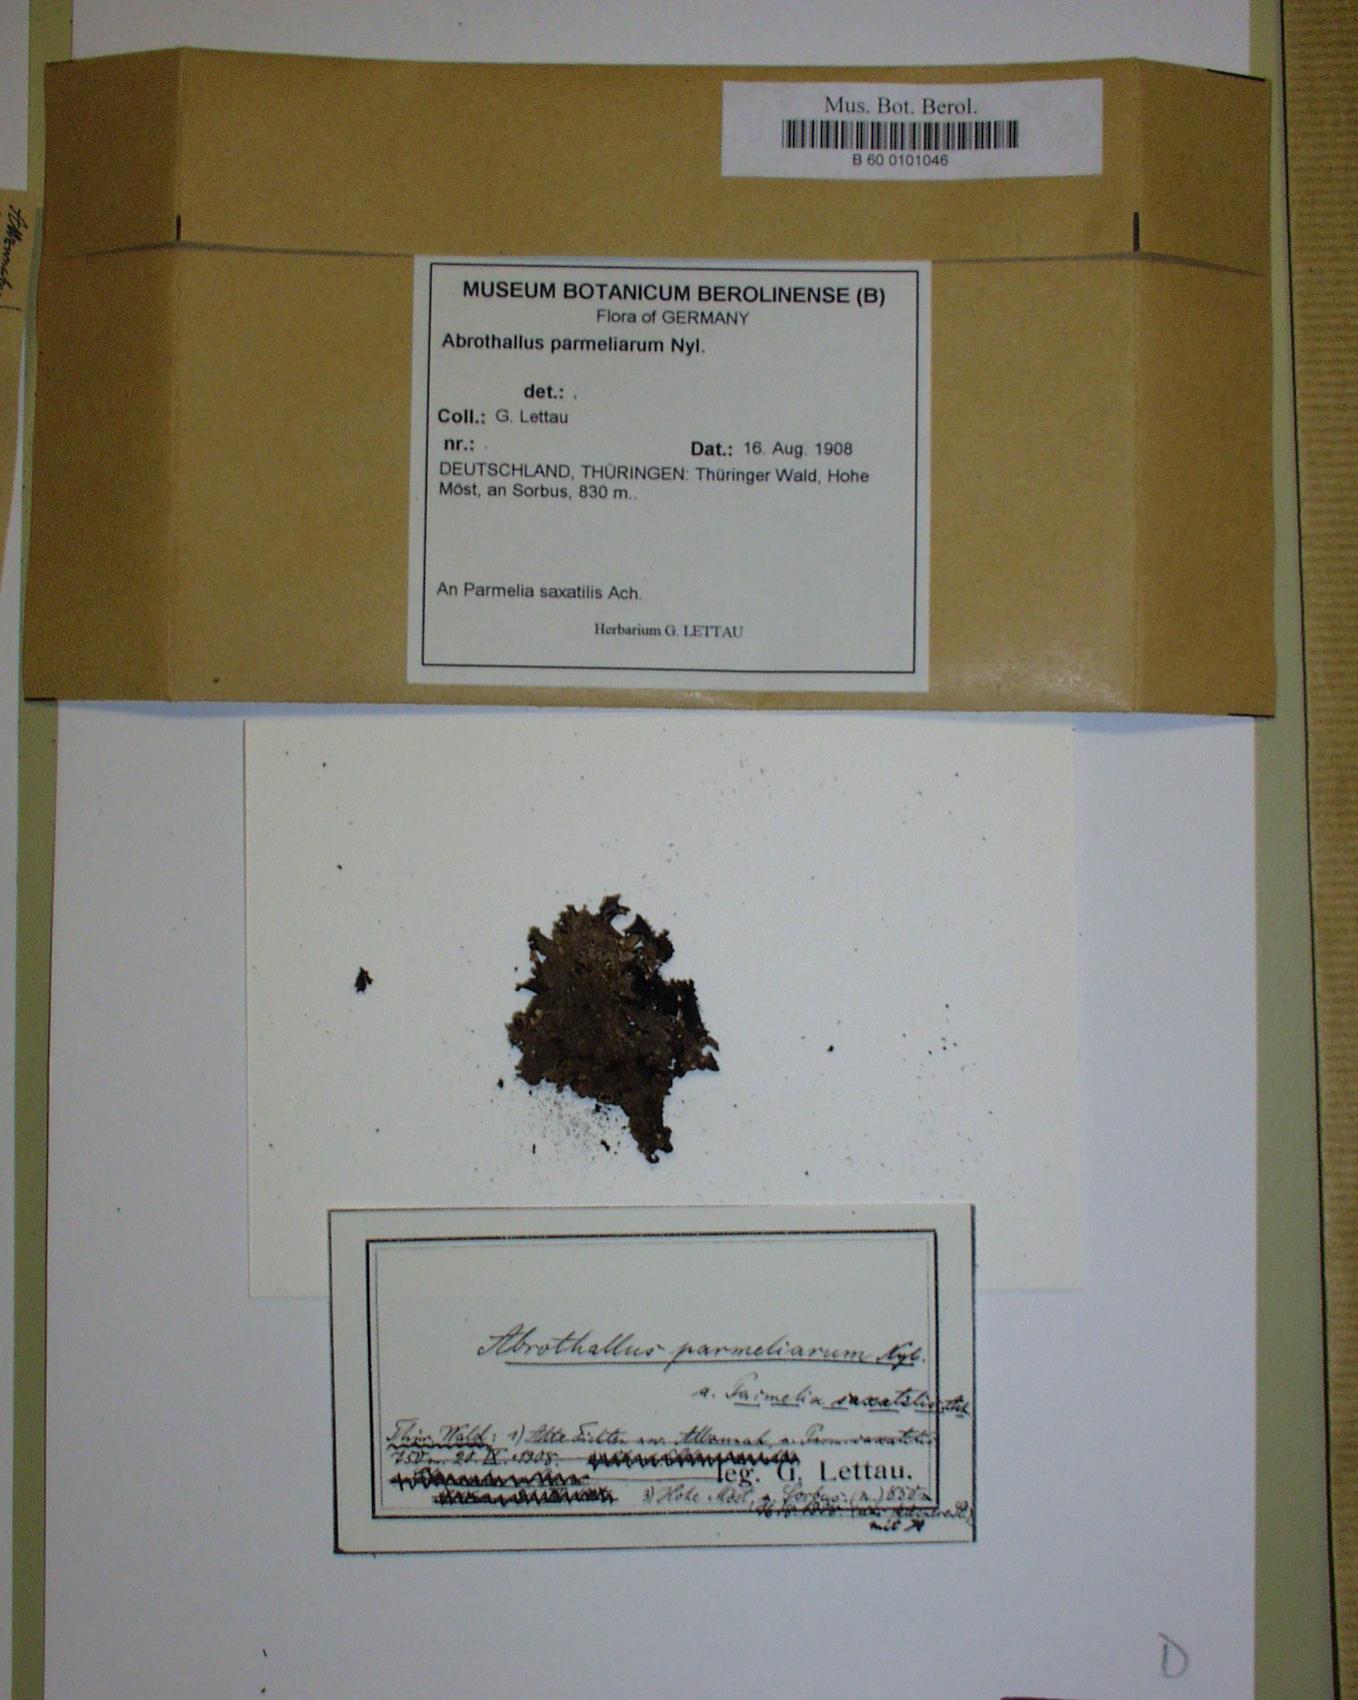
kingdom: Fungi
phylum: Ascomycota
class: Dothideomycetes
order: Abrothallales
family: Abrothallaceae
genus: Abrothallus
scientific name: Abrothallus parmeliarum
